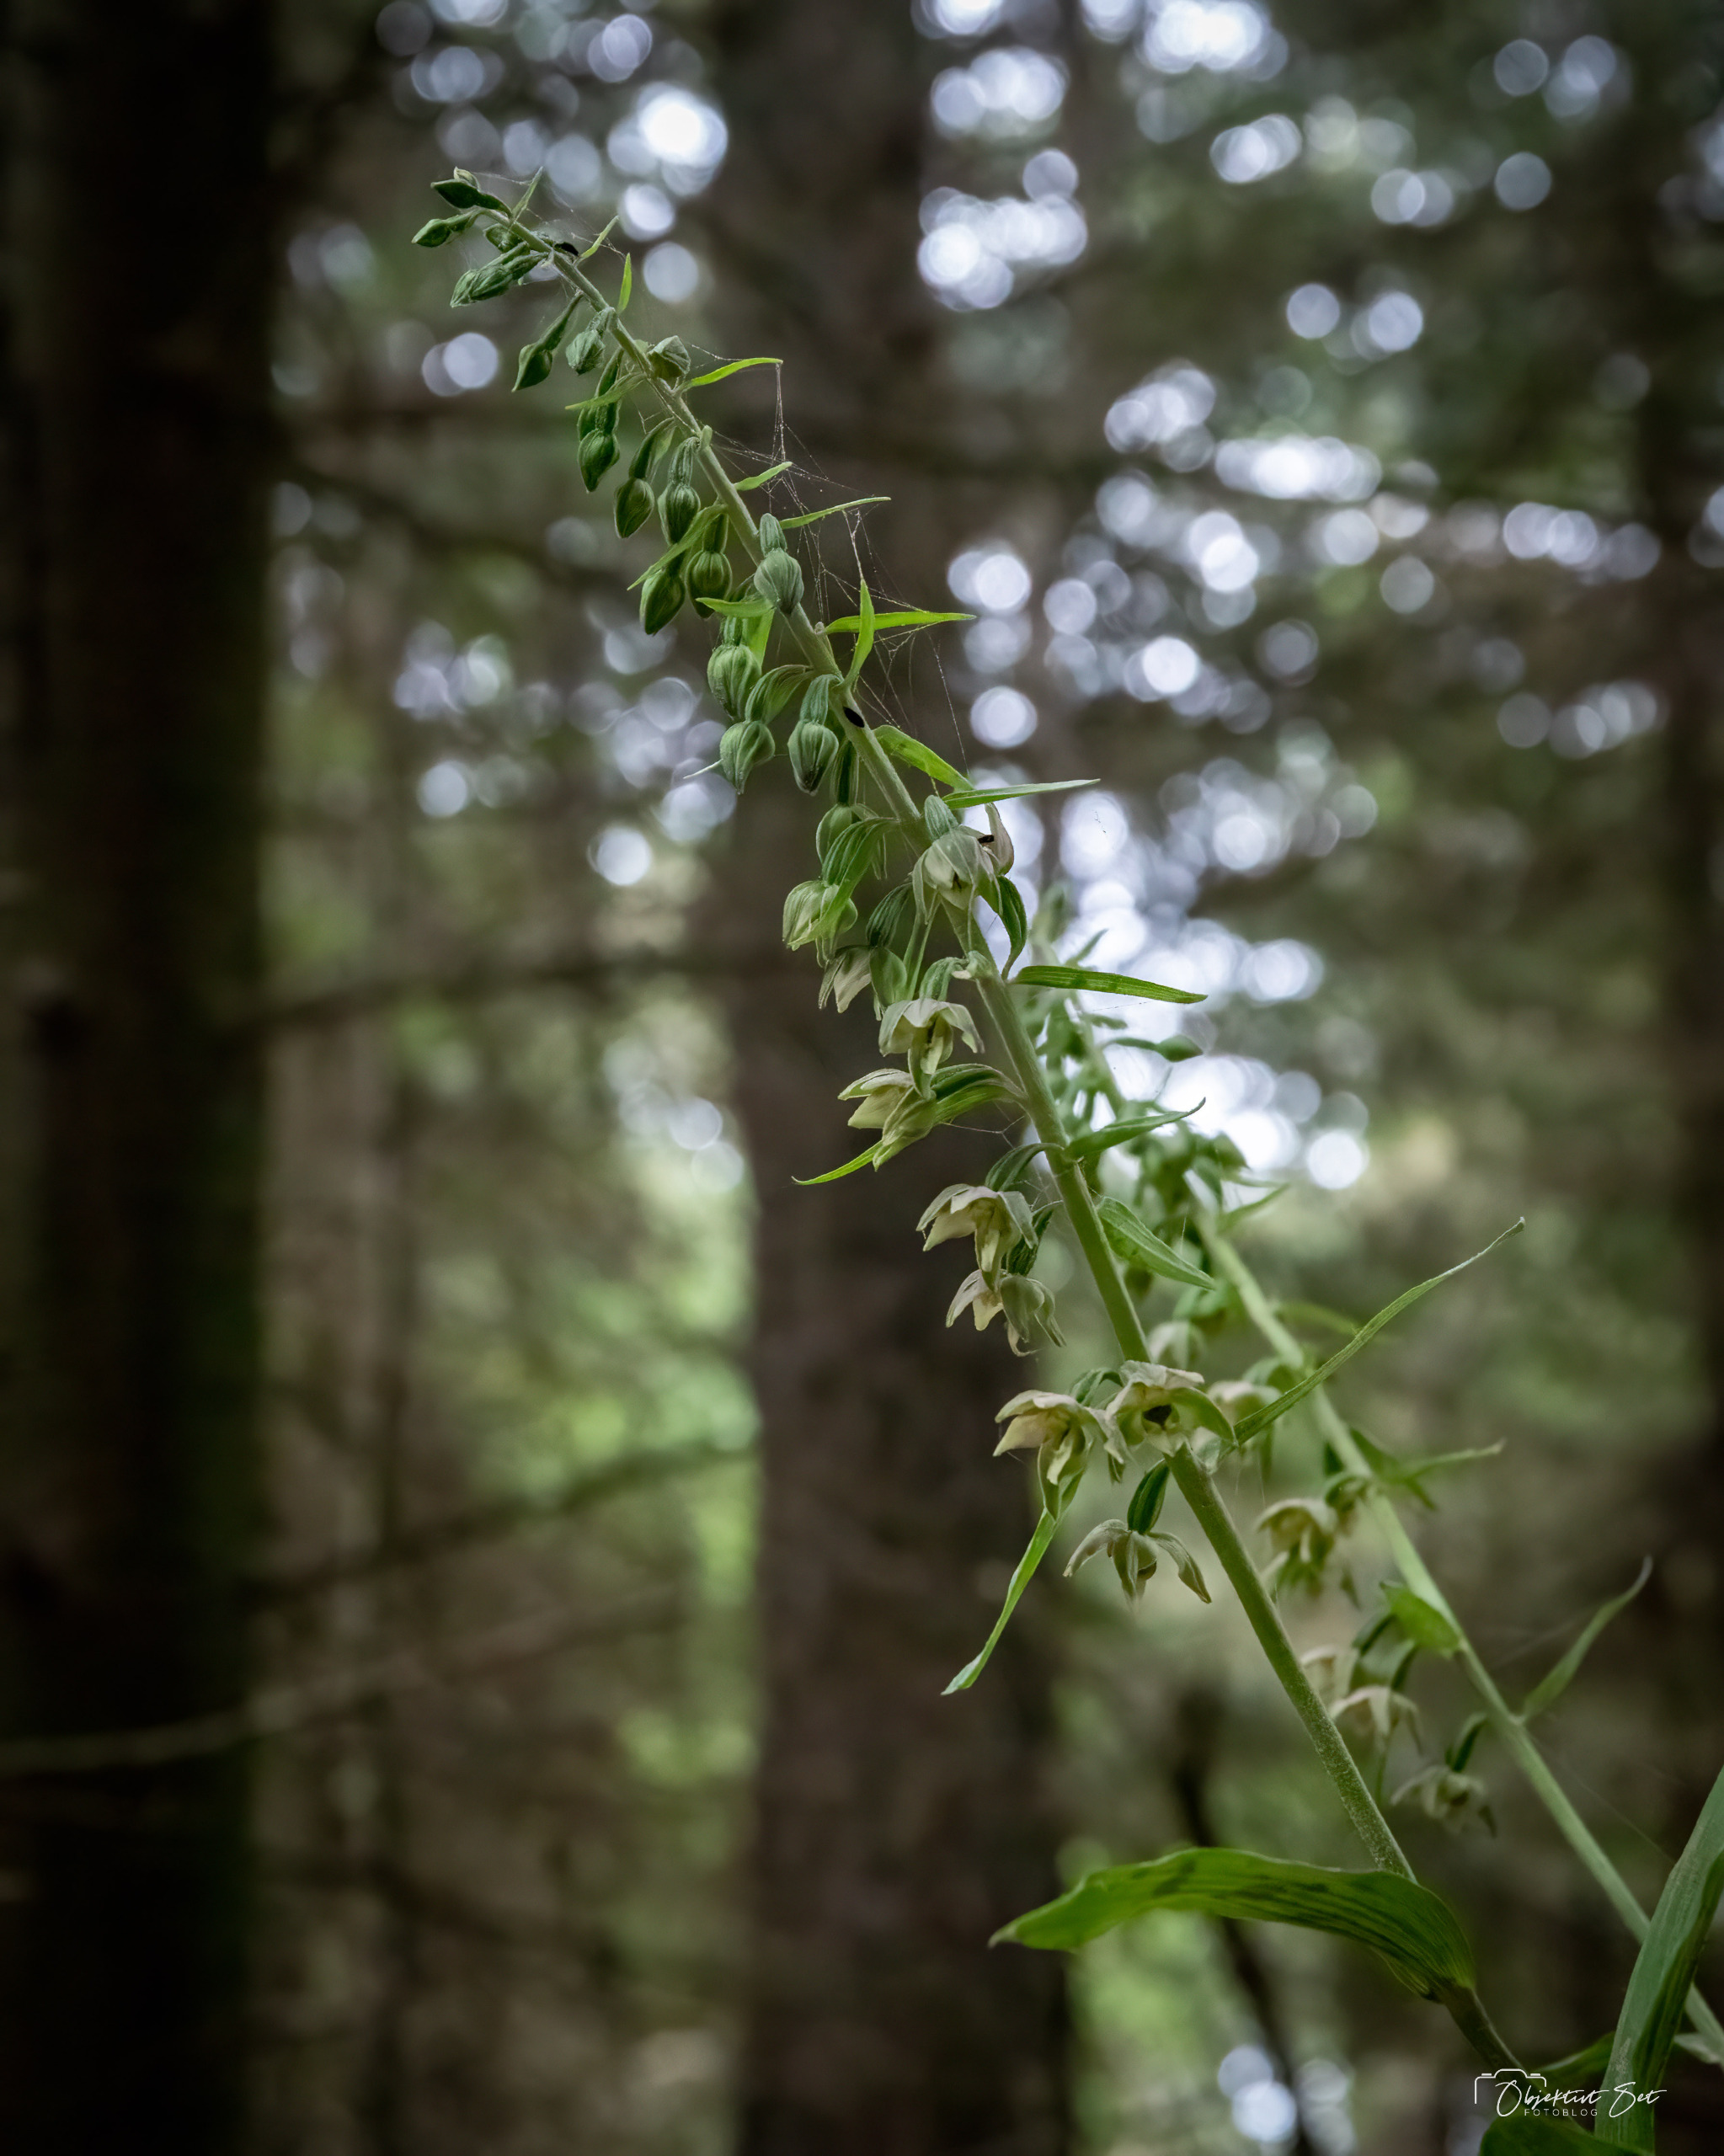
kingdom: Plantae
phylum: Tracheophyta
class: Liliopsida
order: Asparagales
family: Orchidaceae
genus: Epipactis
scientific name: Epipactis helleborine
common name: Skov-hullæbe
